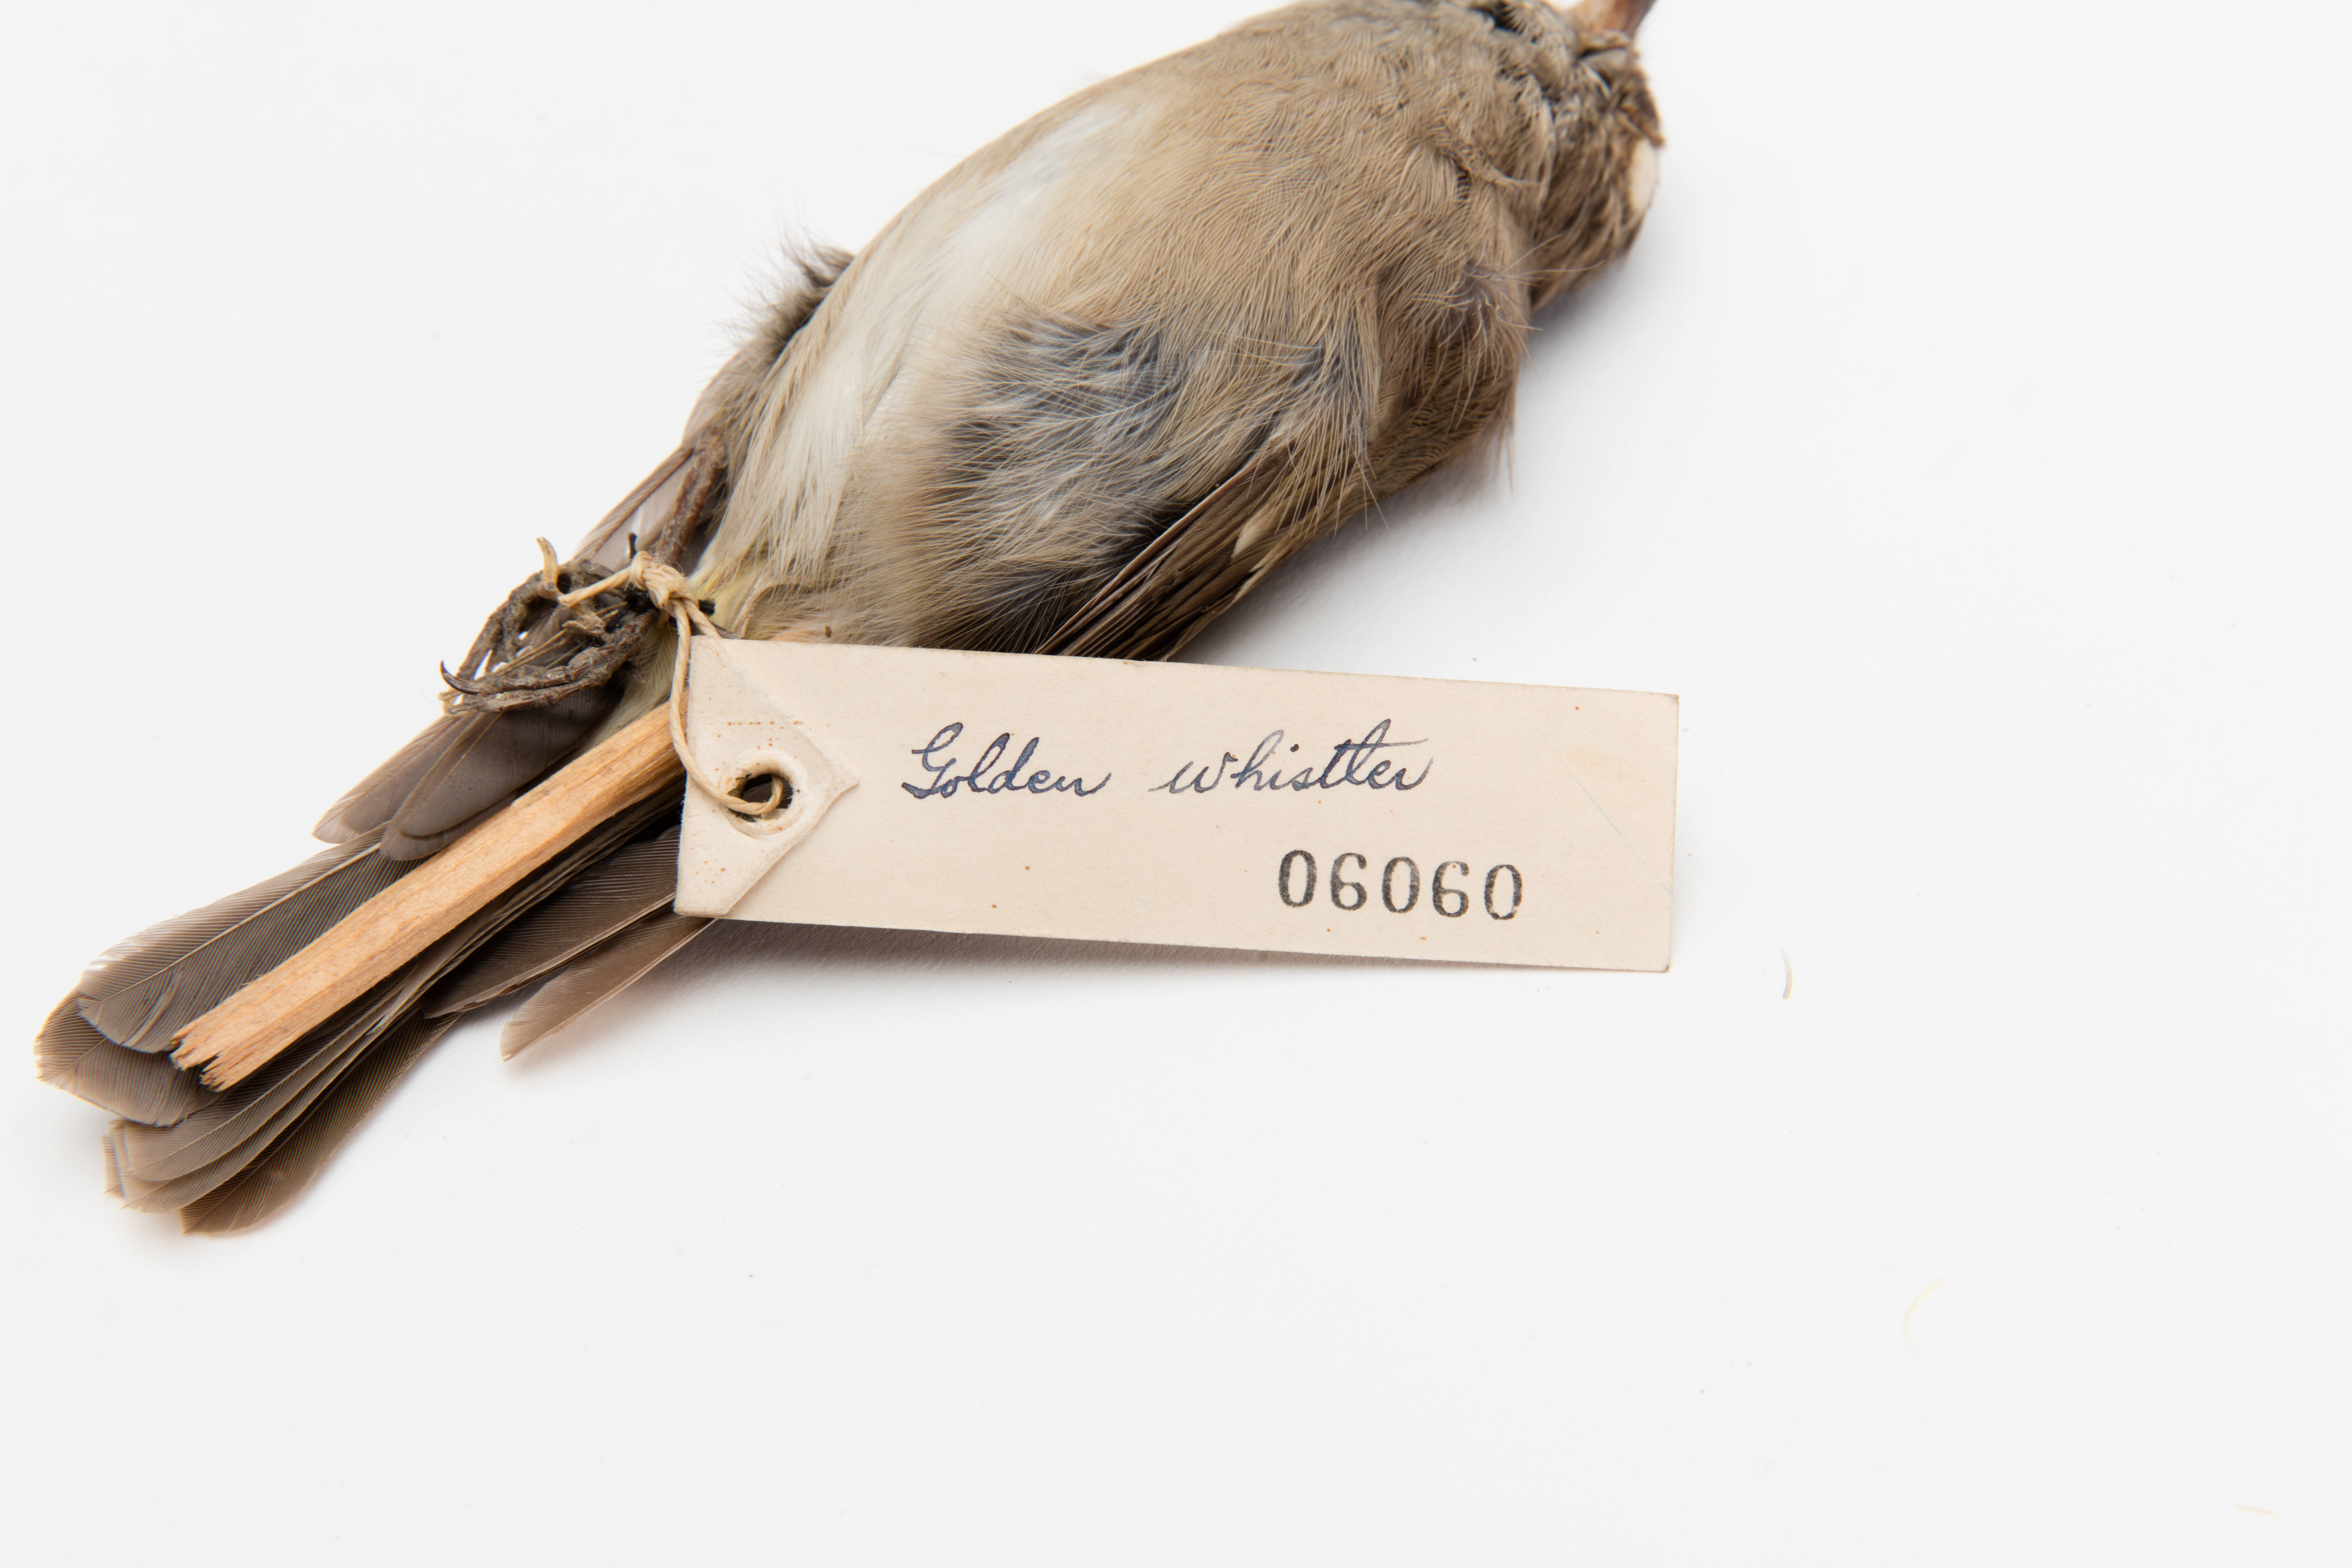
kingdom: Animalia
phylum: Chordata
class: Aves
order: Passeriformes
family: Pachycephalidae
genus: Pachycephala
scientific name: Pachycephala pectoralis
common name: Australian golden whistler
